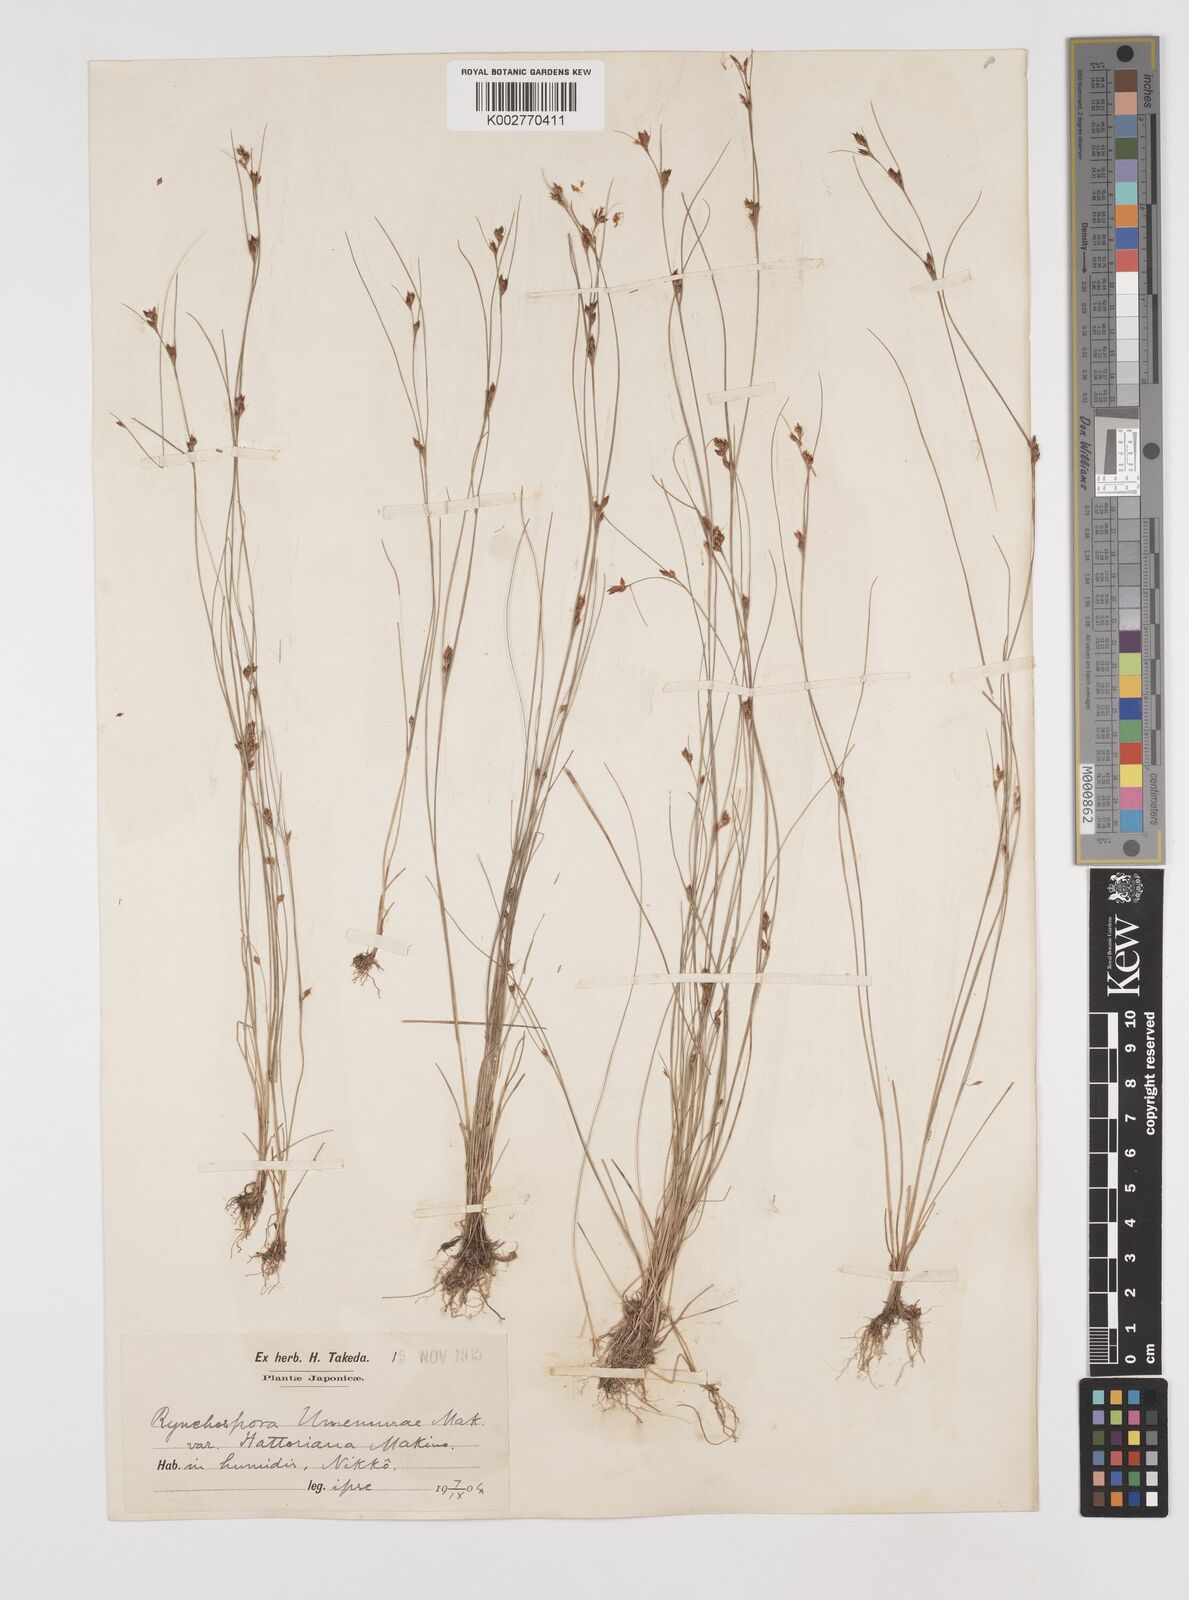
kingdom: Plantae
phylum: Tracheophyta
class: Liliopsida
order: Poales
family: Cyperaceae
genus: Rhynchospora
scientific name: Rhynchospora faberi
